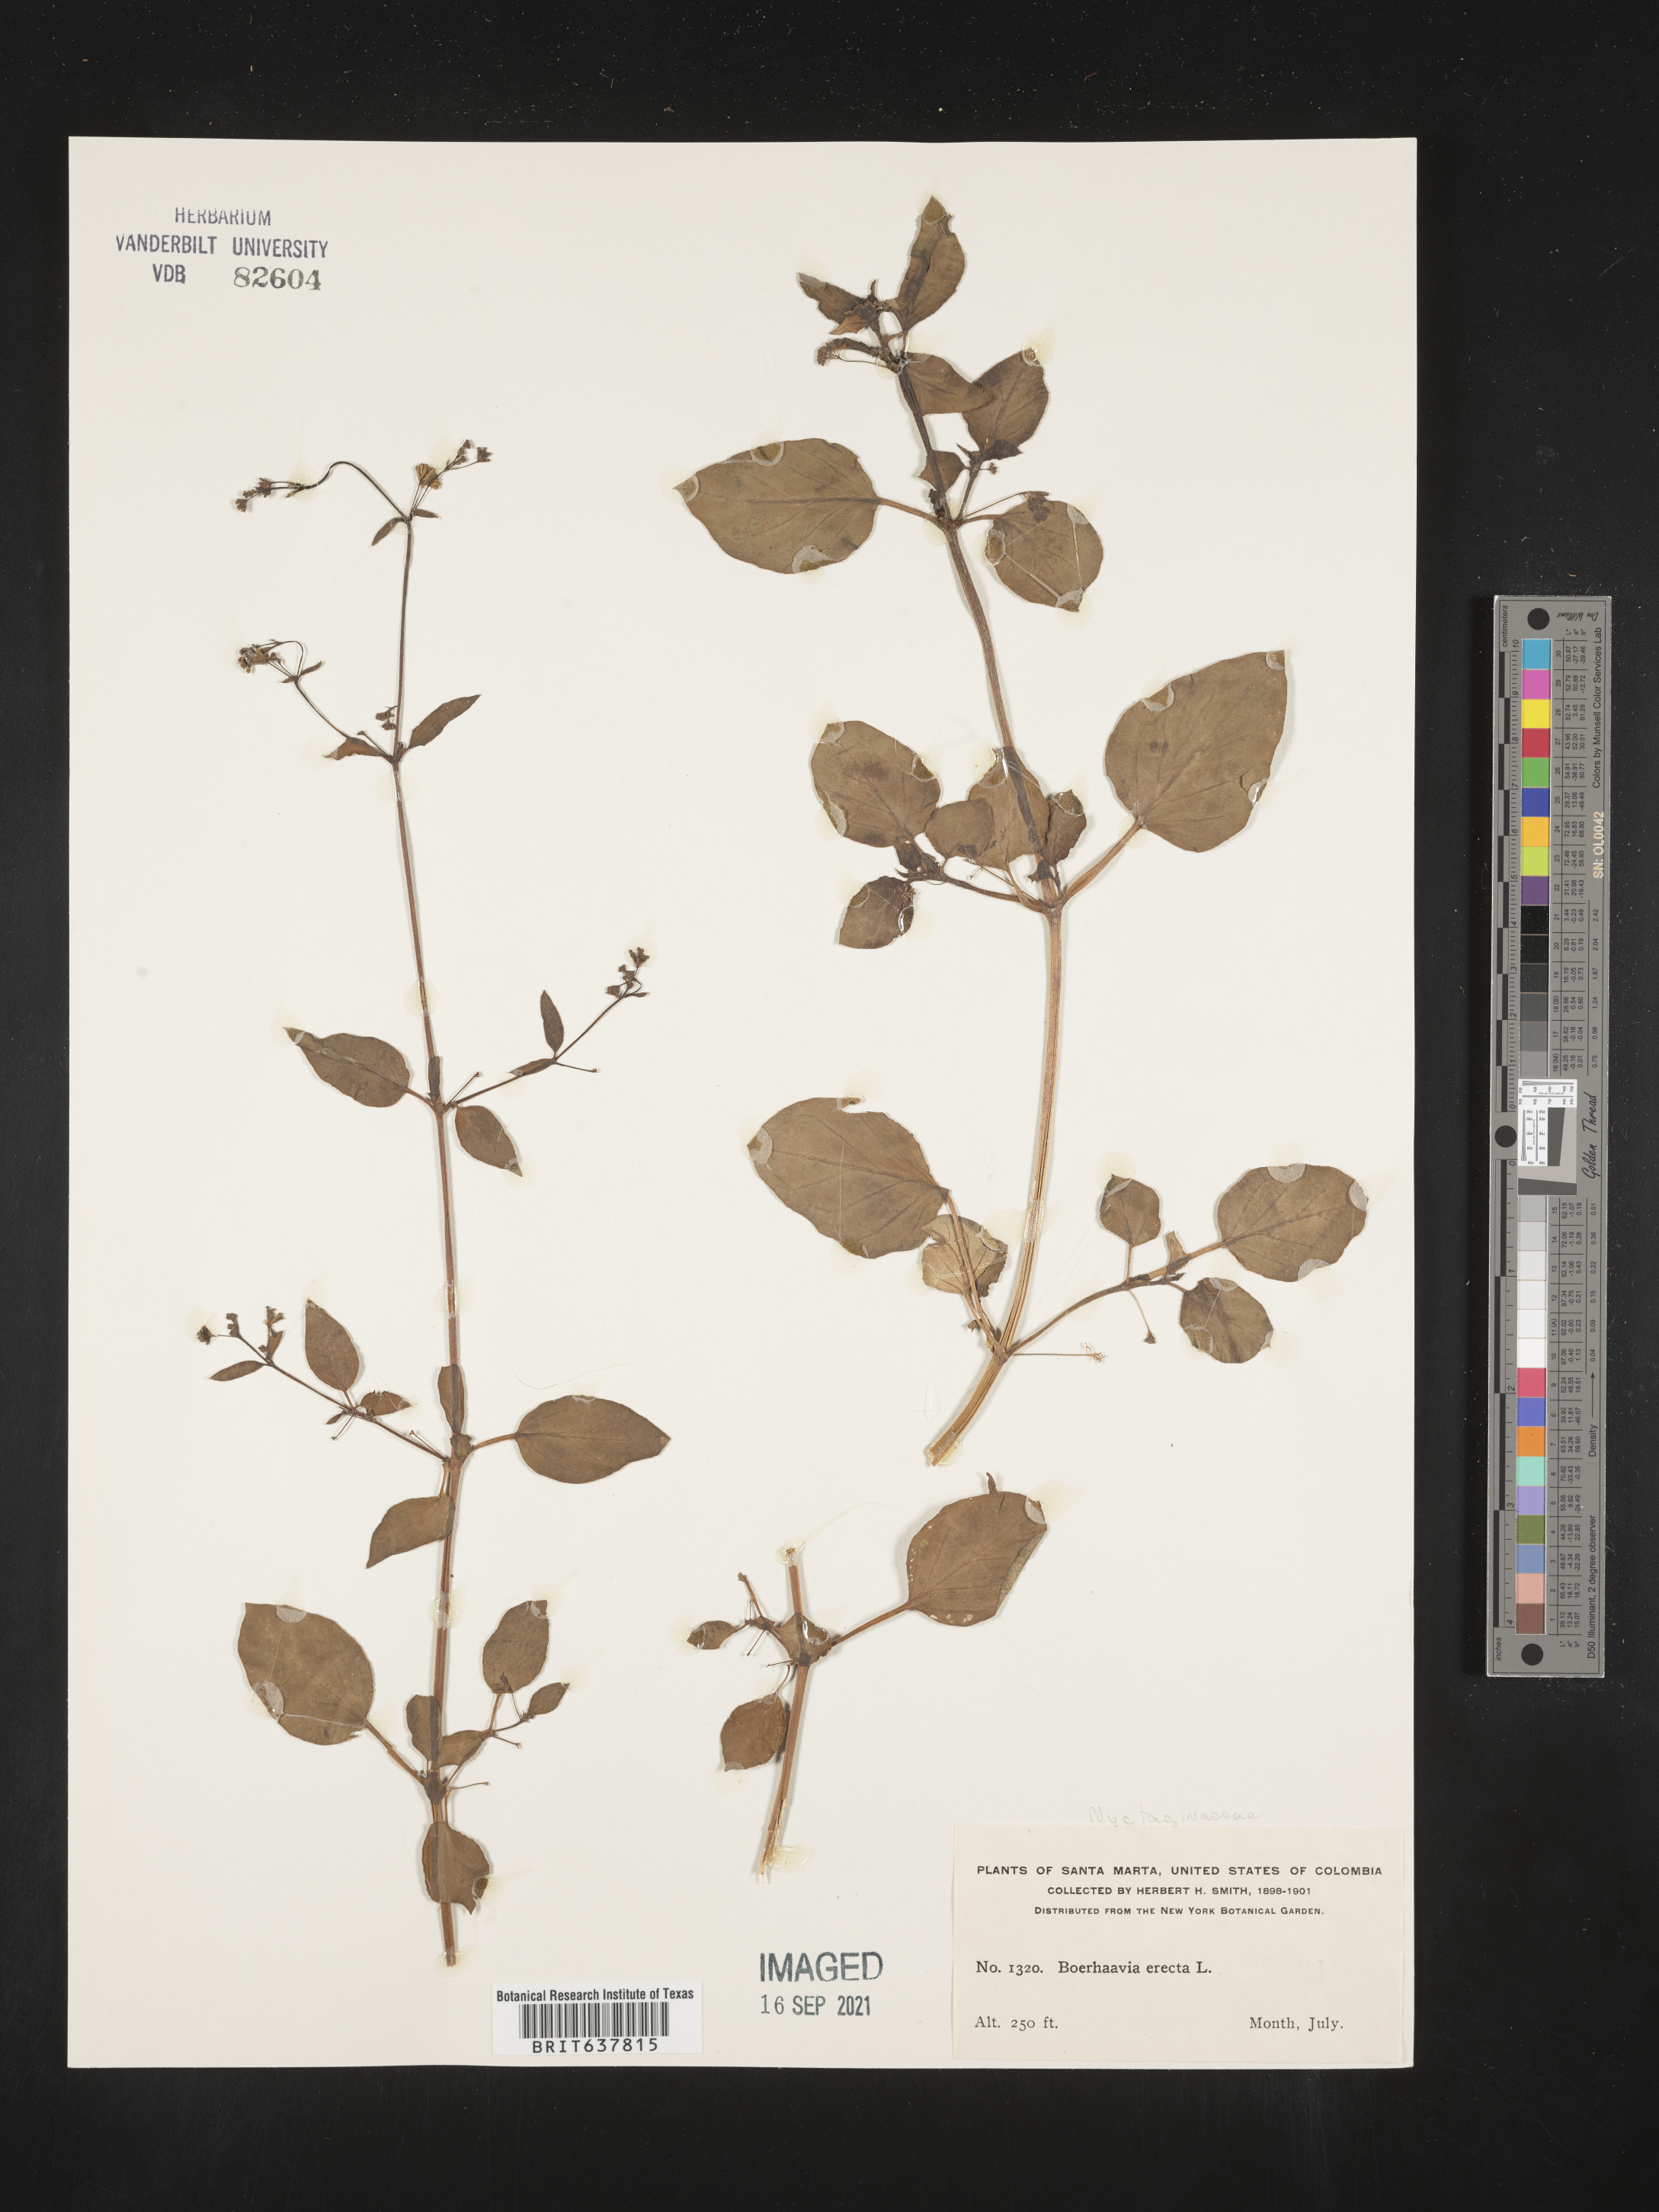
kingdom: Plantae
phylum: Tracheophyta
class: Magnoliopsida
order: Caryophyllales
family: Nyctaginaceae
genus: Boerhavia
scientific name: Boerhavia
